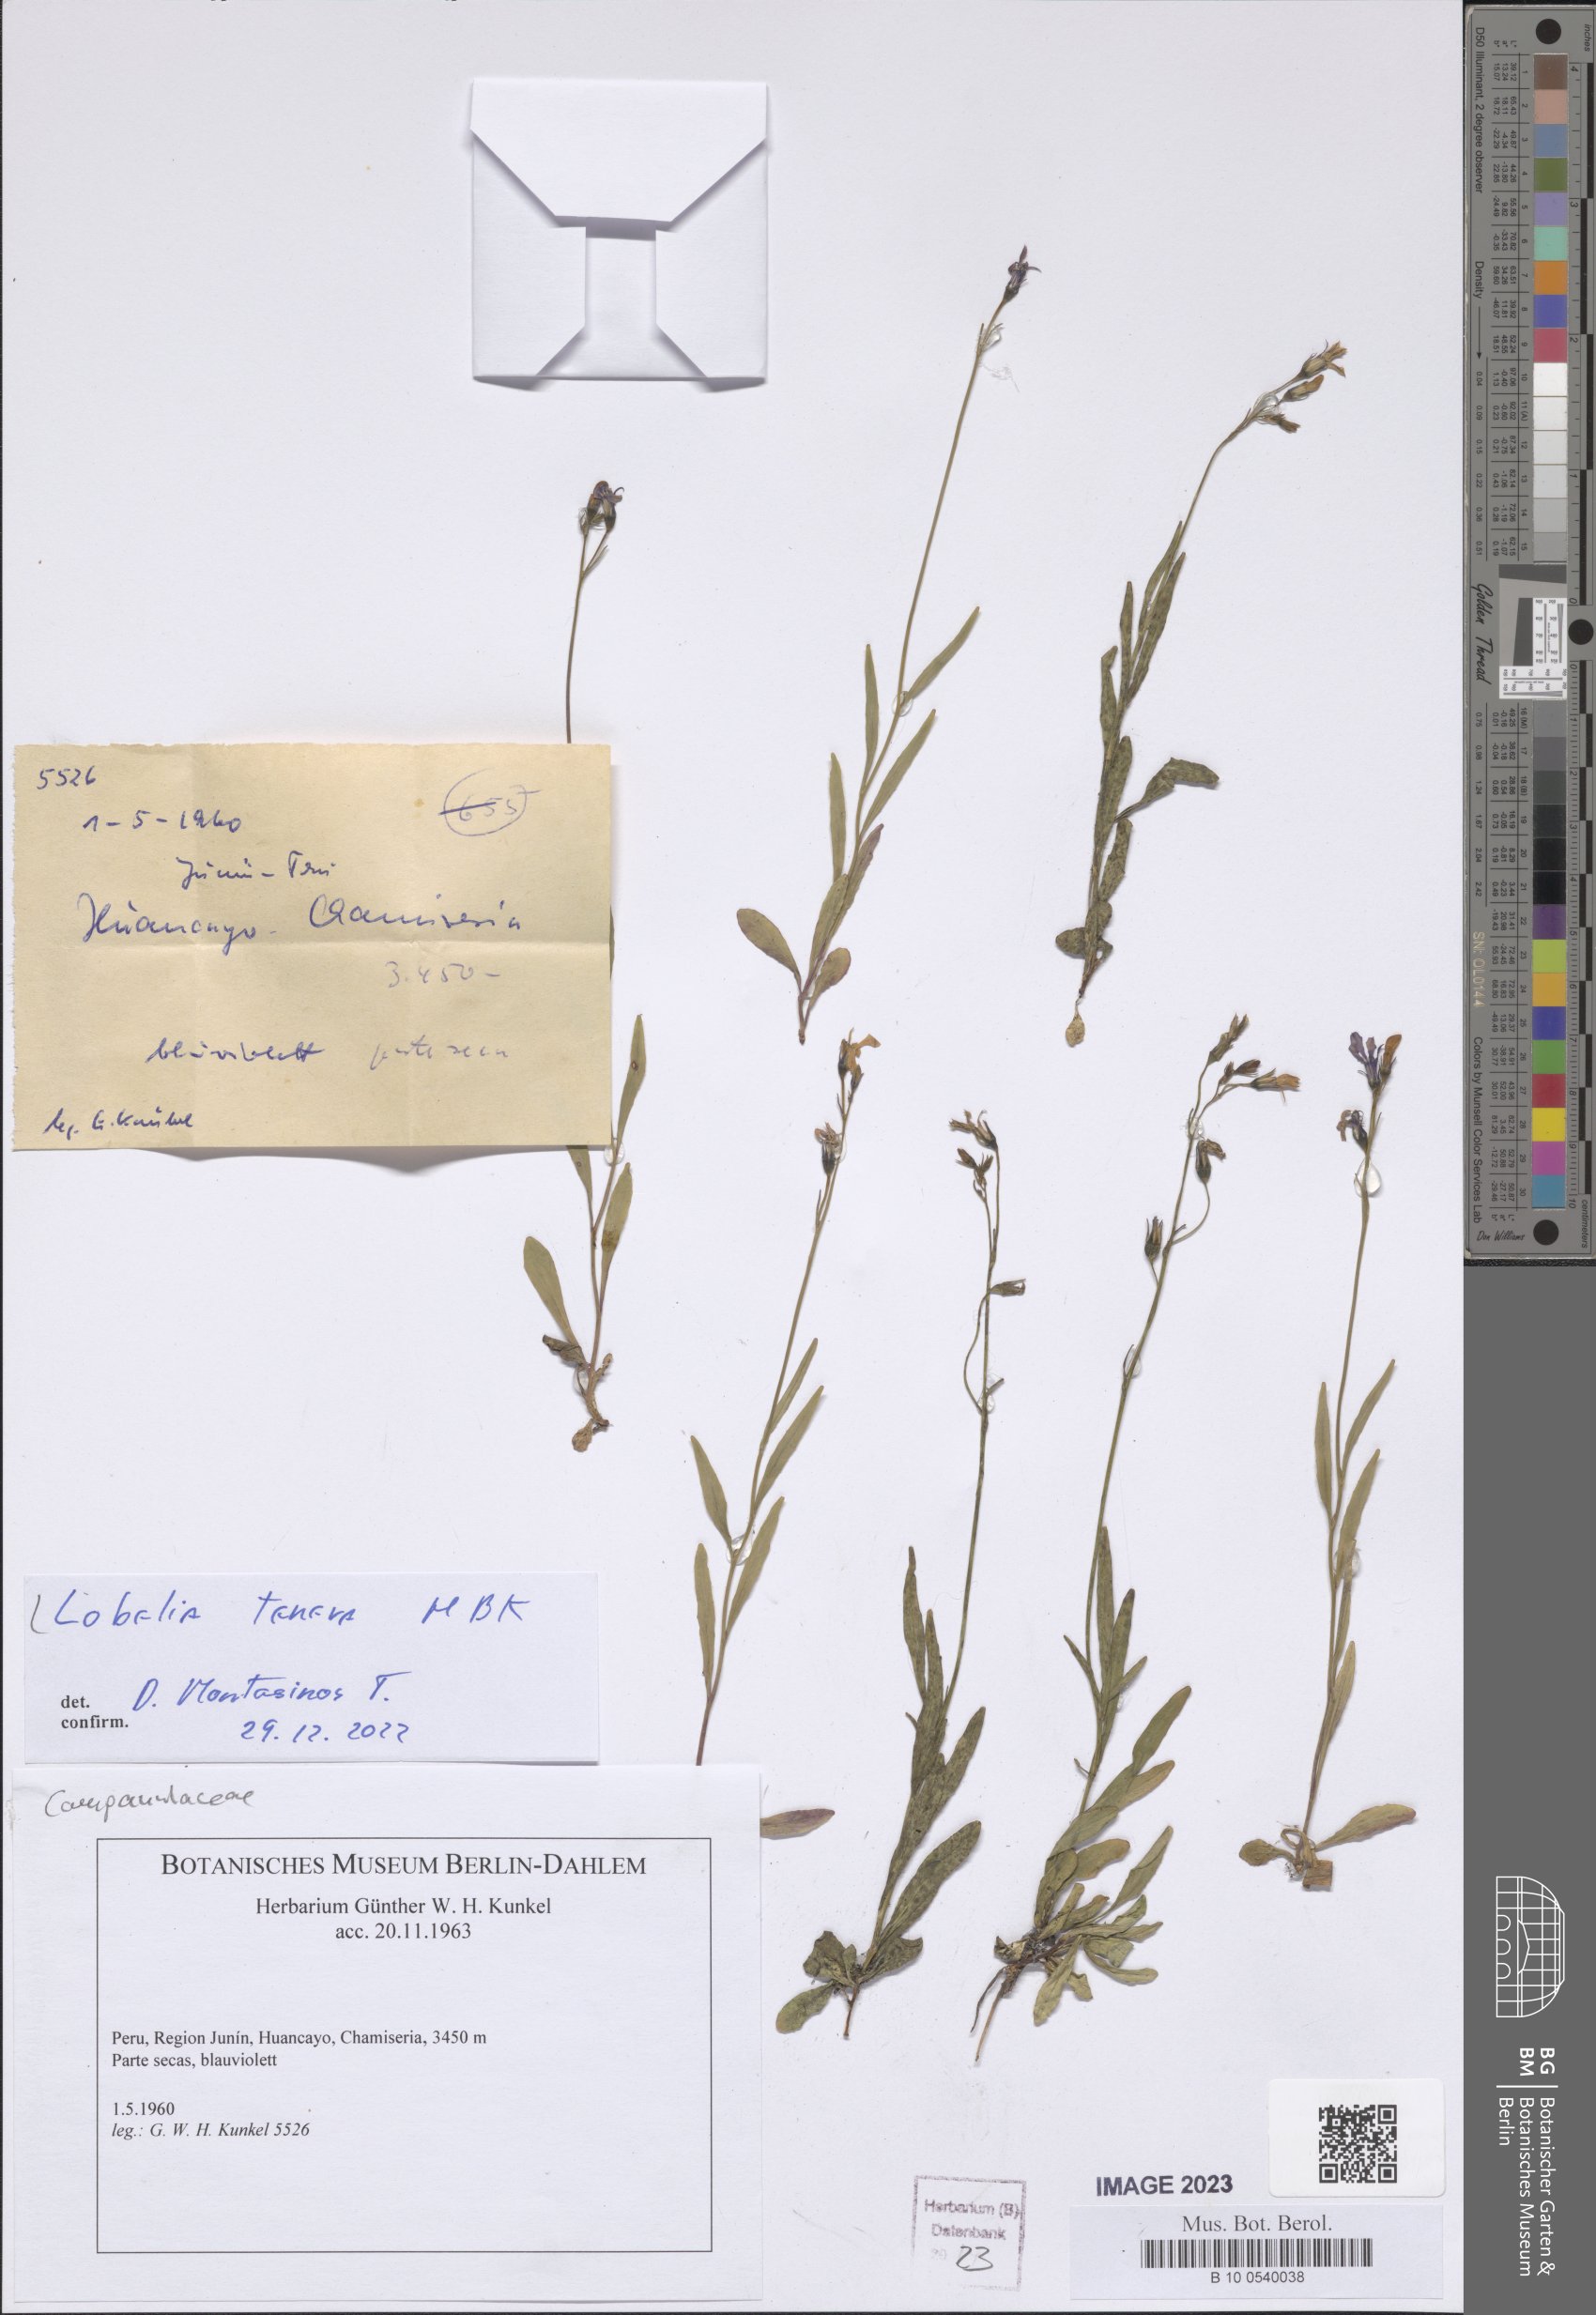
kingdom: Plantae
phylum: Tracheophyta
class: Magnoliopsida
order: Asterales
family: Campanulaceae
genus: Lobelia
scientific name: Lobelia tenera
